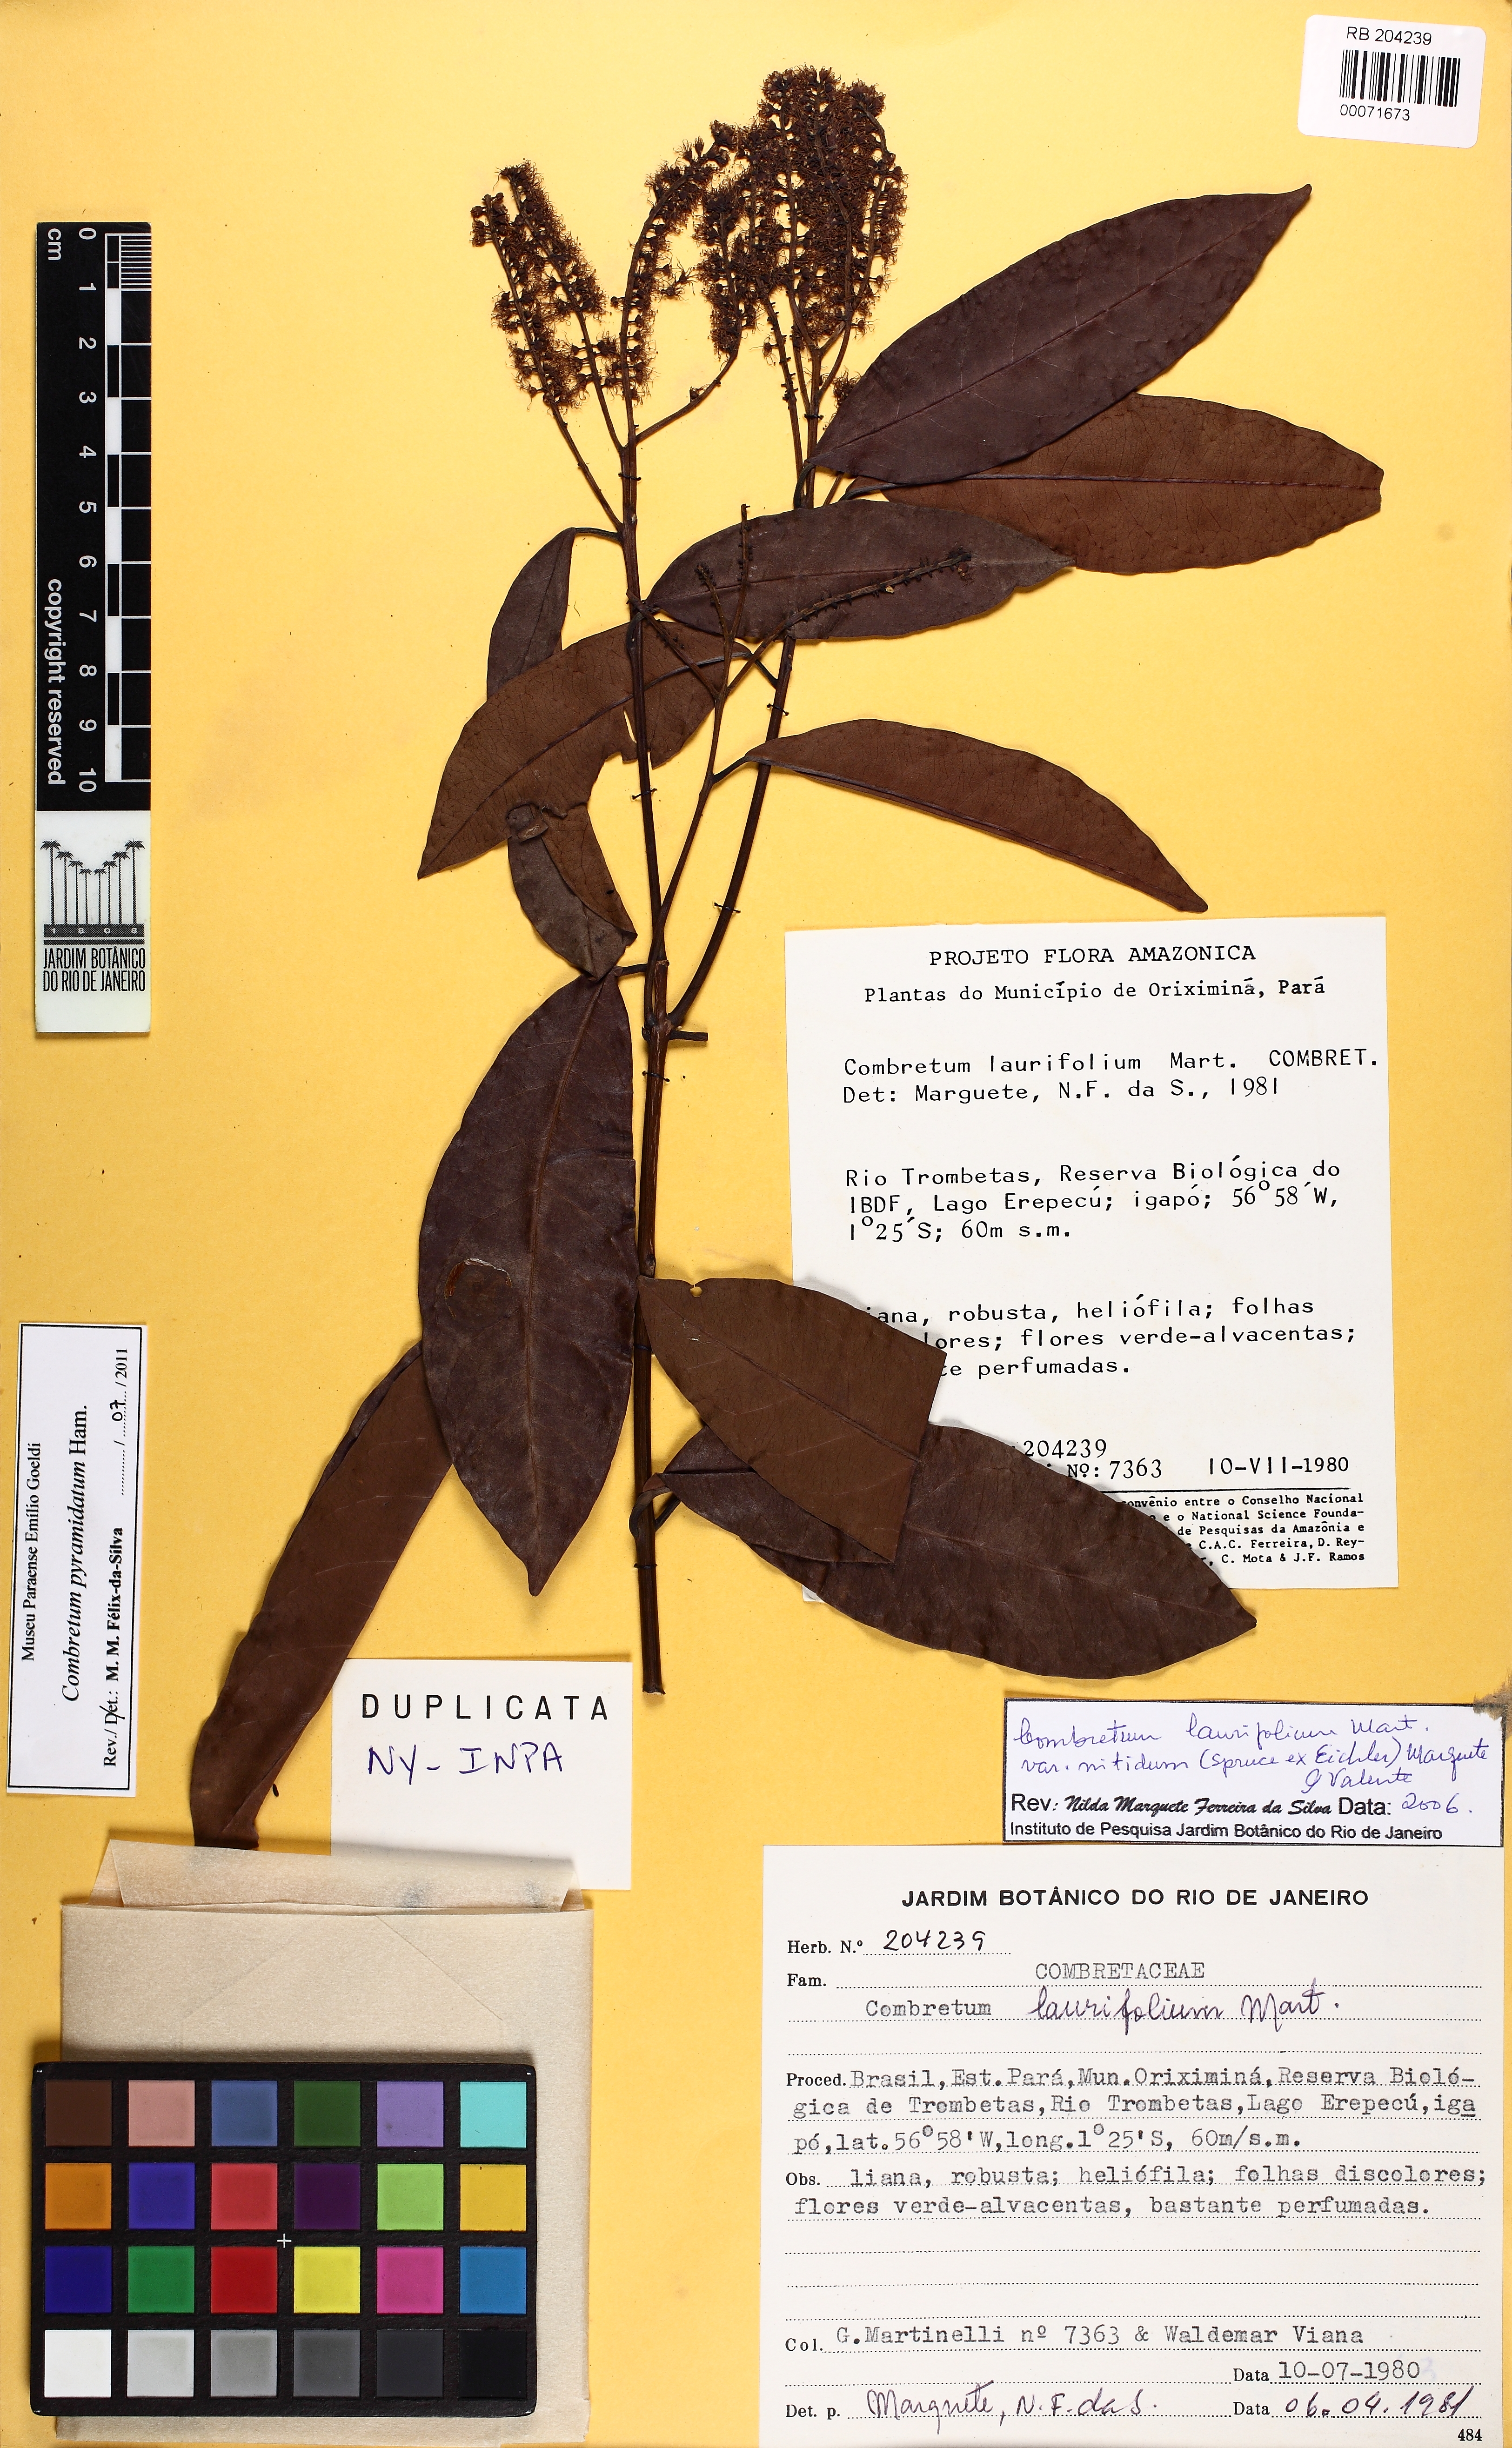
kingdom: Plantae
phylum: Tracheophyta
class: Magnoliopsida
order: Myrtales
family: Combretaceae
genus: Combretum
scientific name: Combretum pyramidatum
